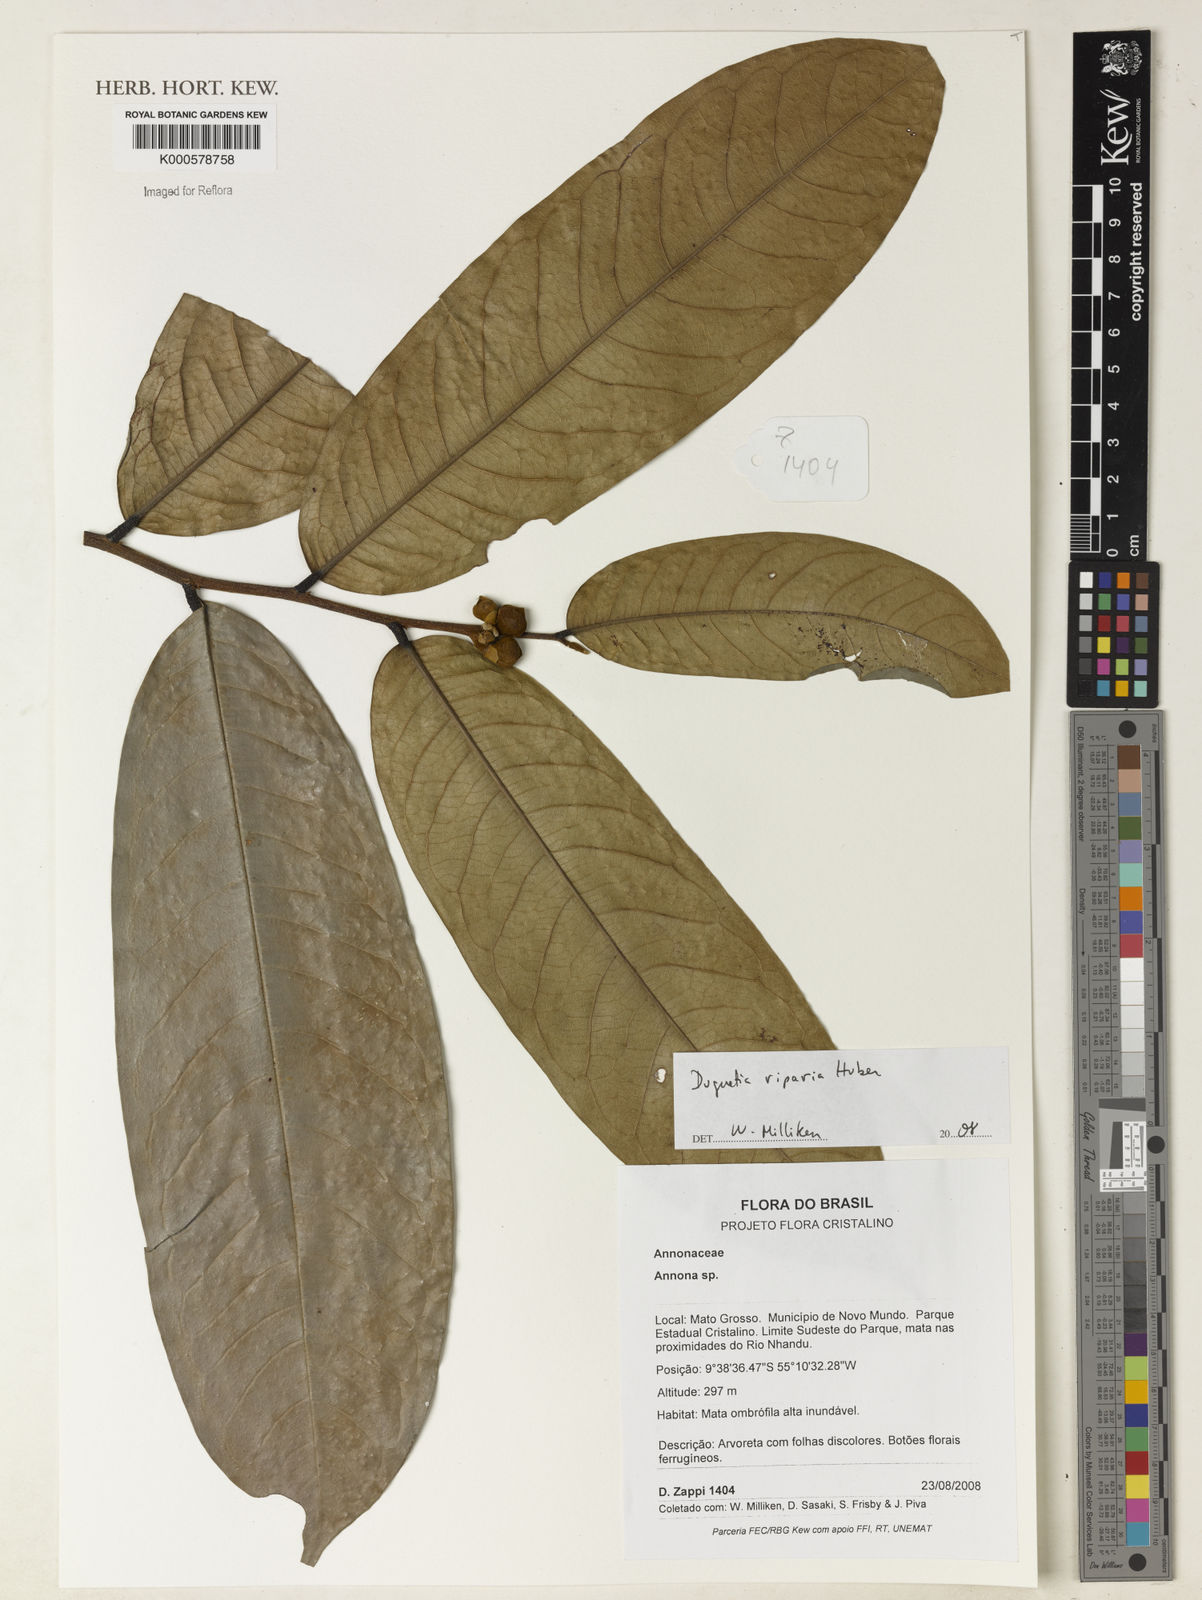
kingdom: Plantae
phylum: Tracheophyta
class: Magnoliopsida
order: Magnoliales
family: Annonaceae
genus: Duguetia
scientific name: Duguetia riparia
